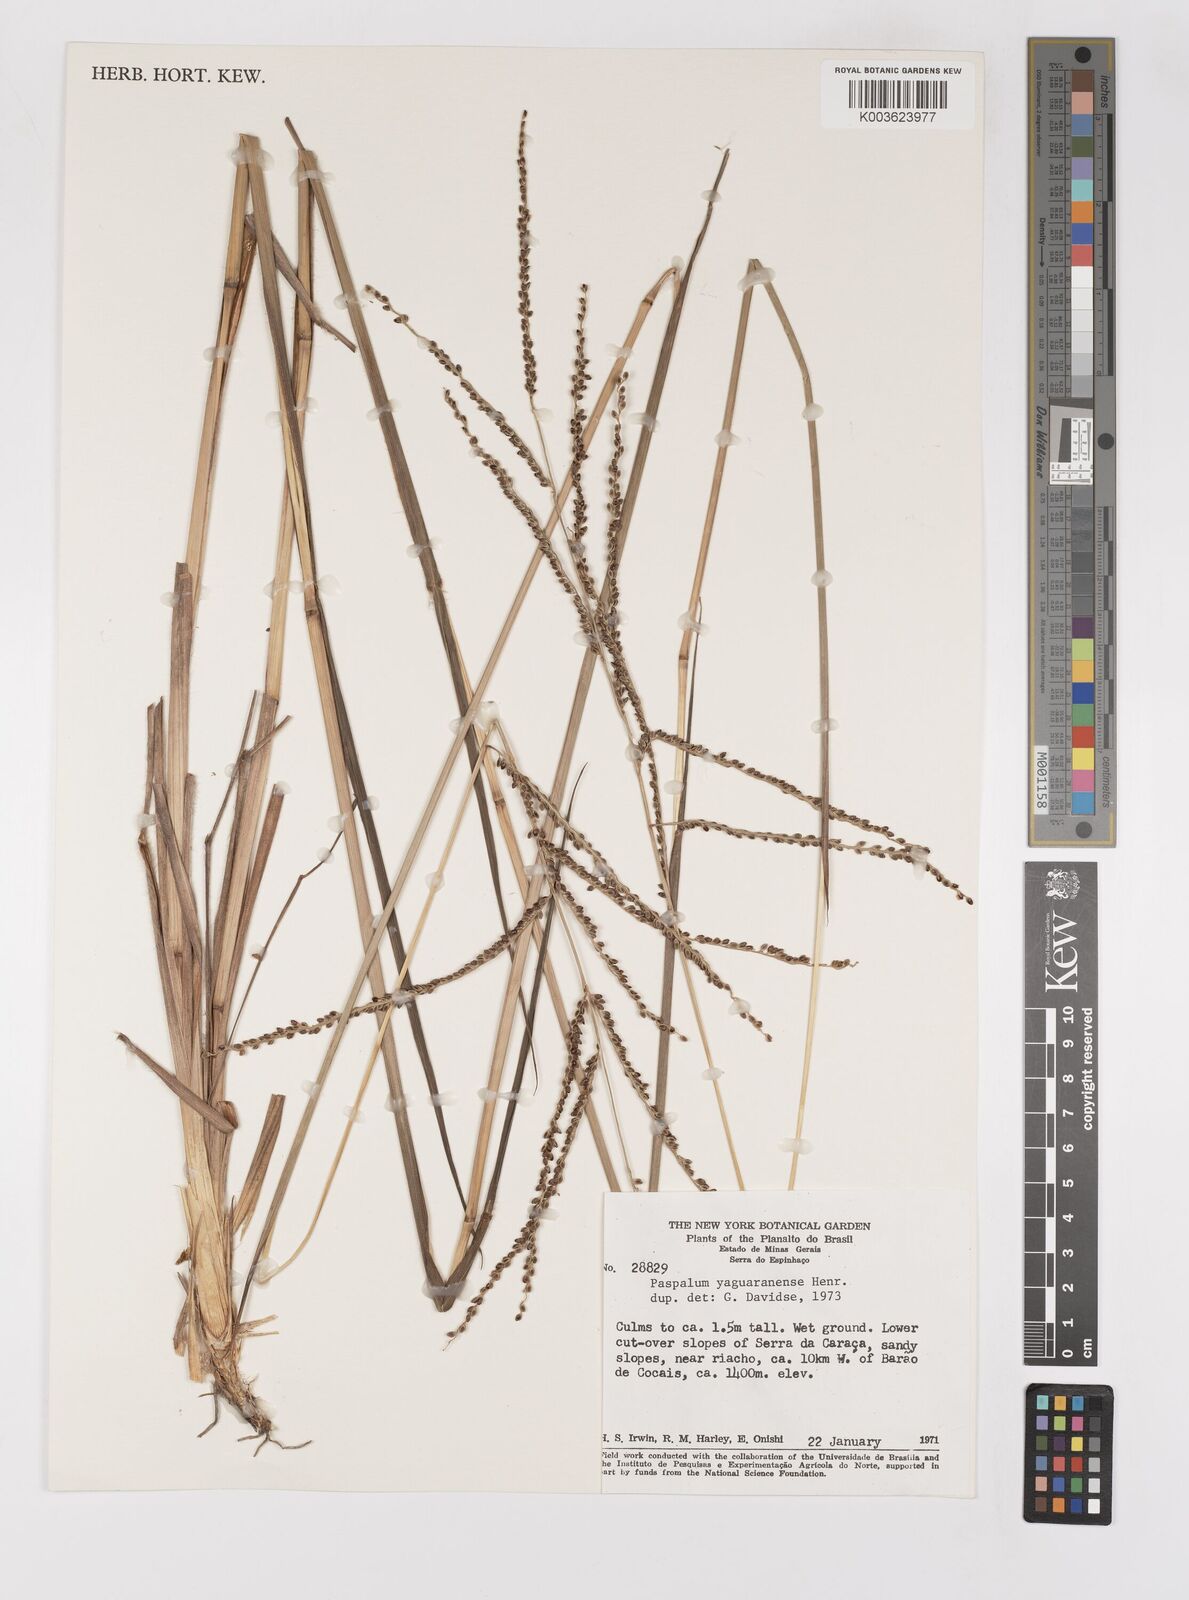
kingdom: Plantae
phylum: Tracheophyta
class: Liliopsida
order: Poales
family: Poaceae
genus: Paspalum
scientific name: Paspalum glaucescens
